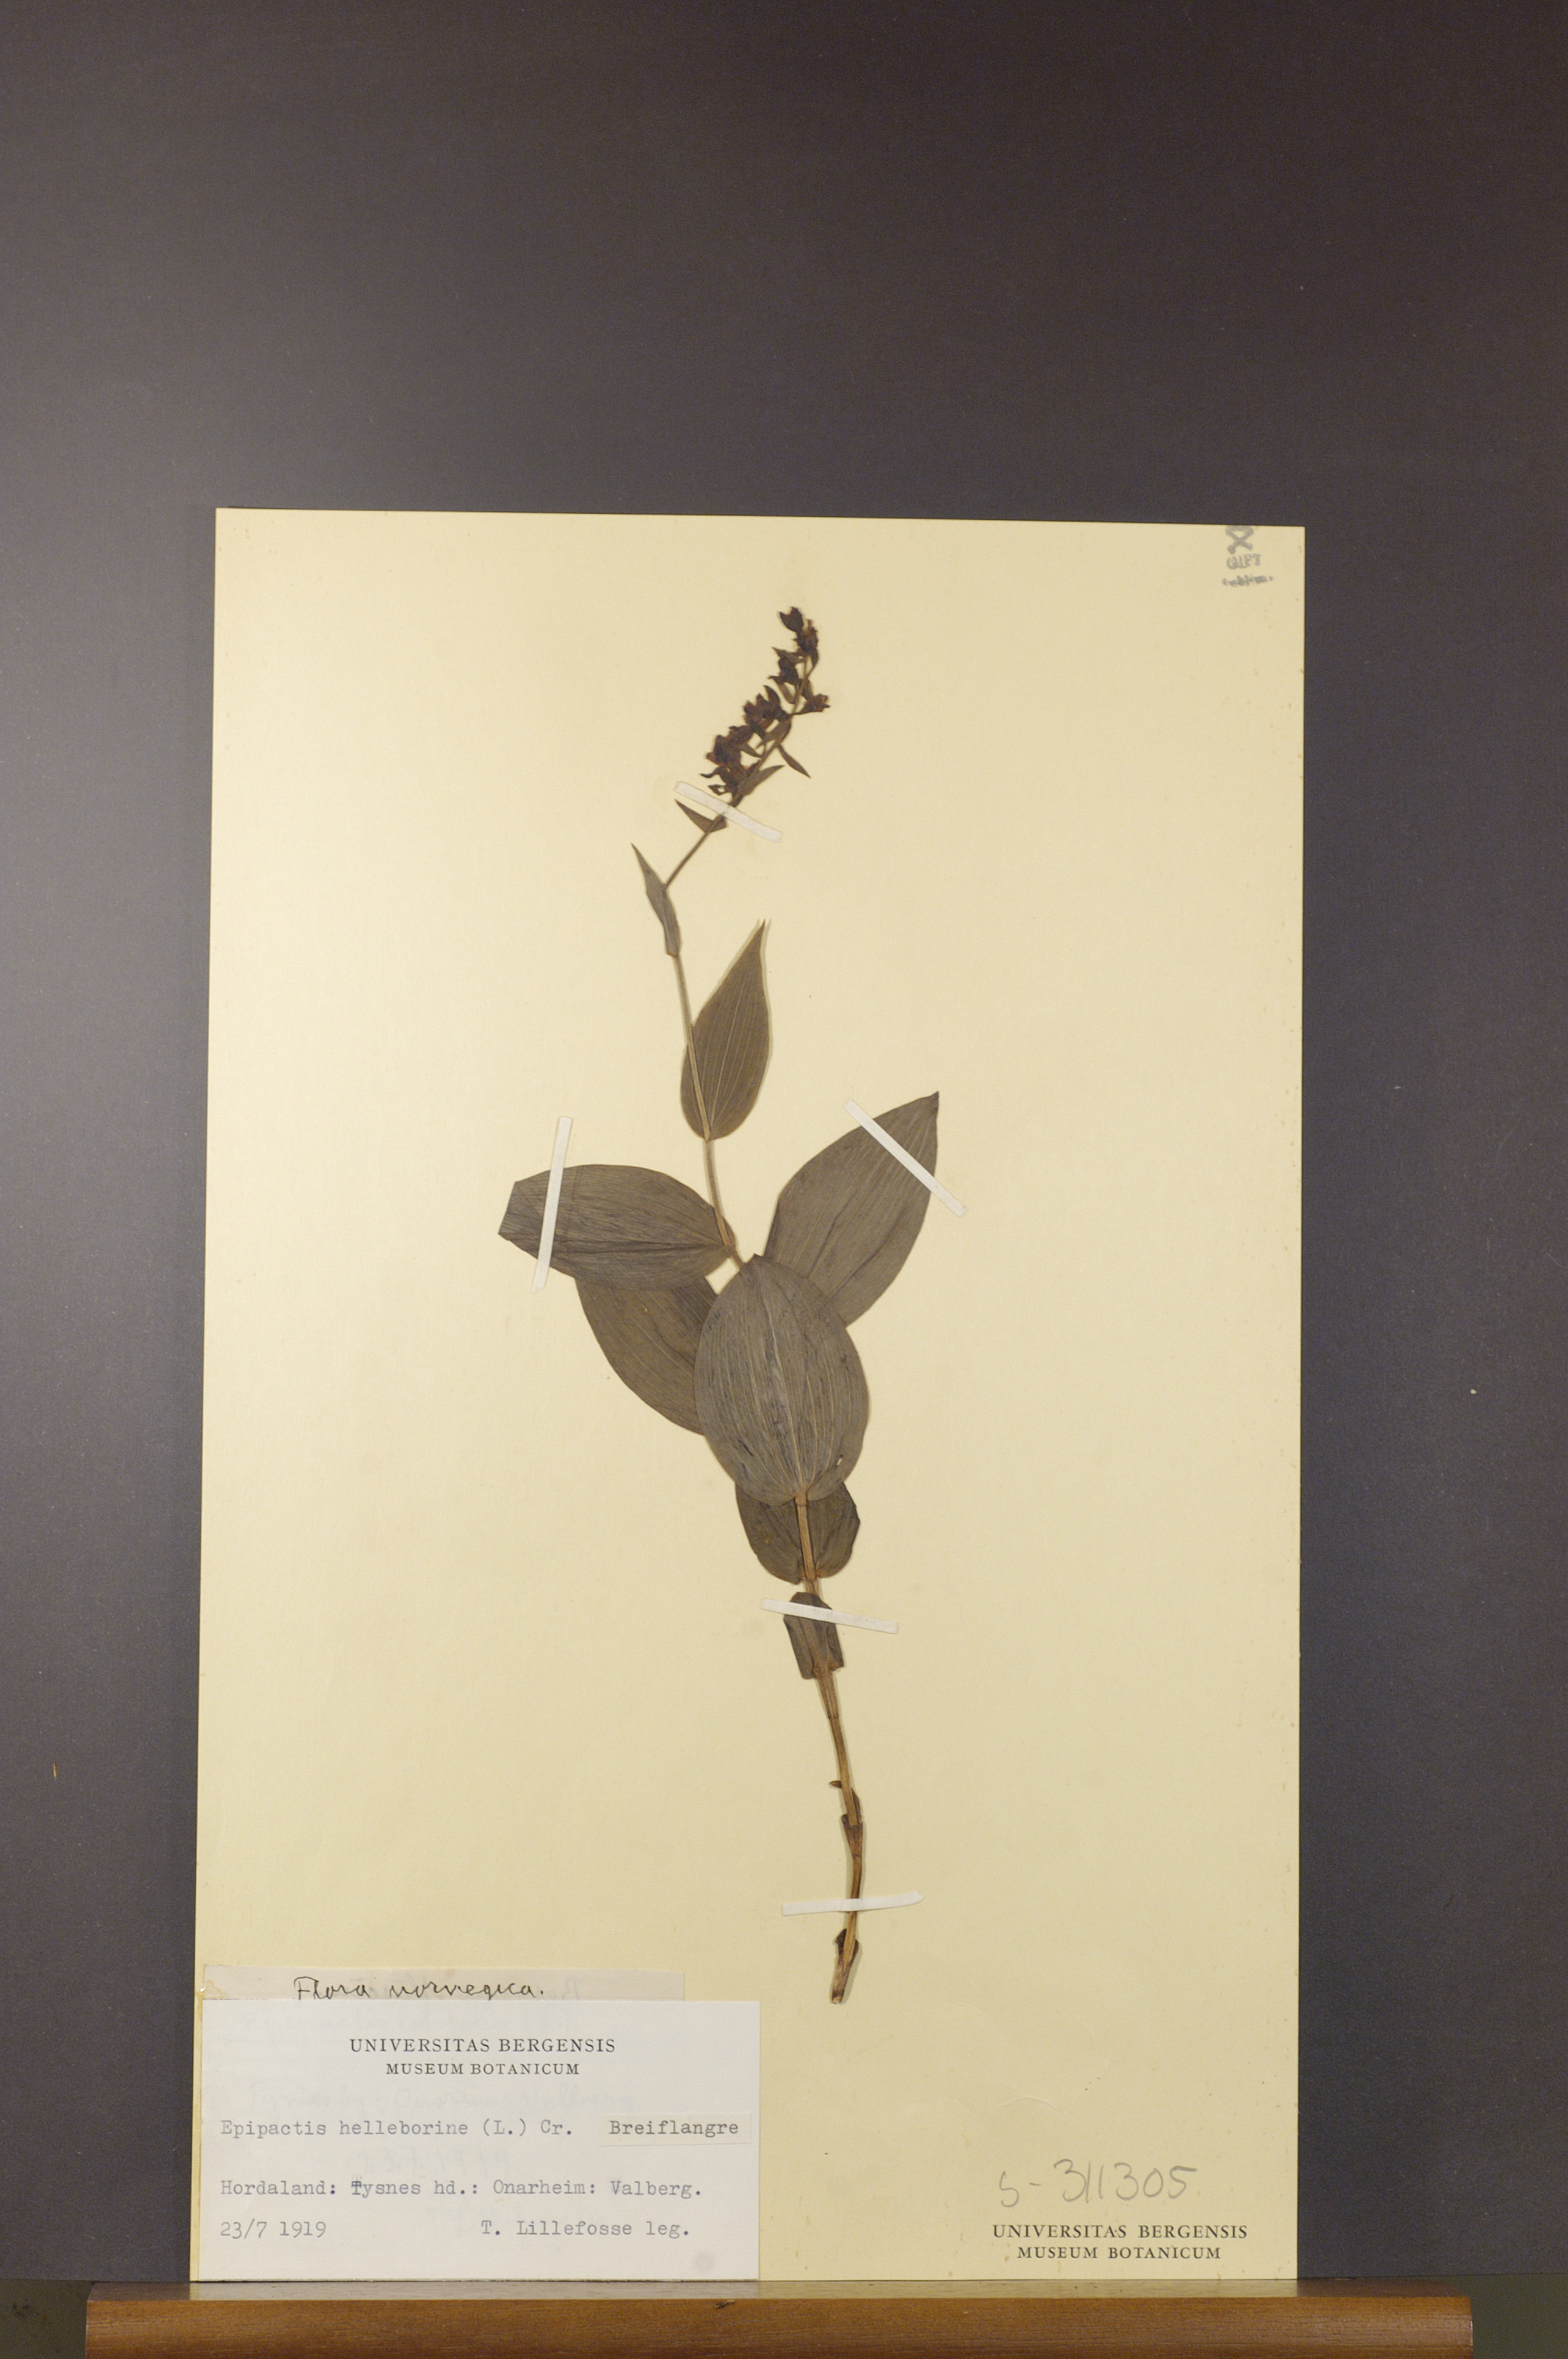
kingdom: Plantae
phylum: Tracheophyta
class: Liliopsida
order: Asparagales
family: Orchidaceae
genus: Epipactis
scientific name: Epipactis helleborine
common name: Broad-leaved helleborine
